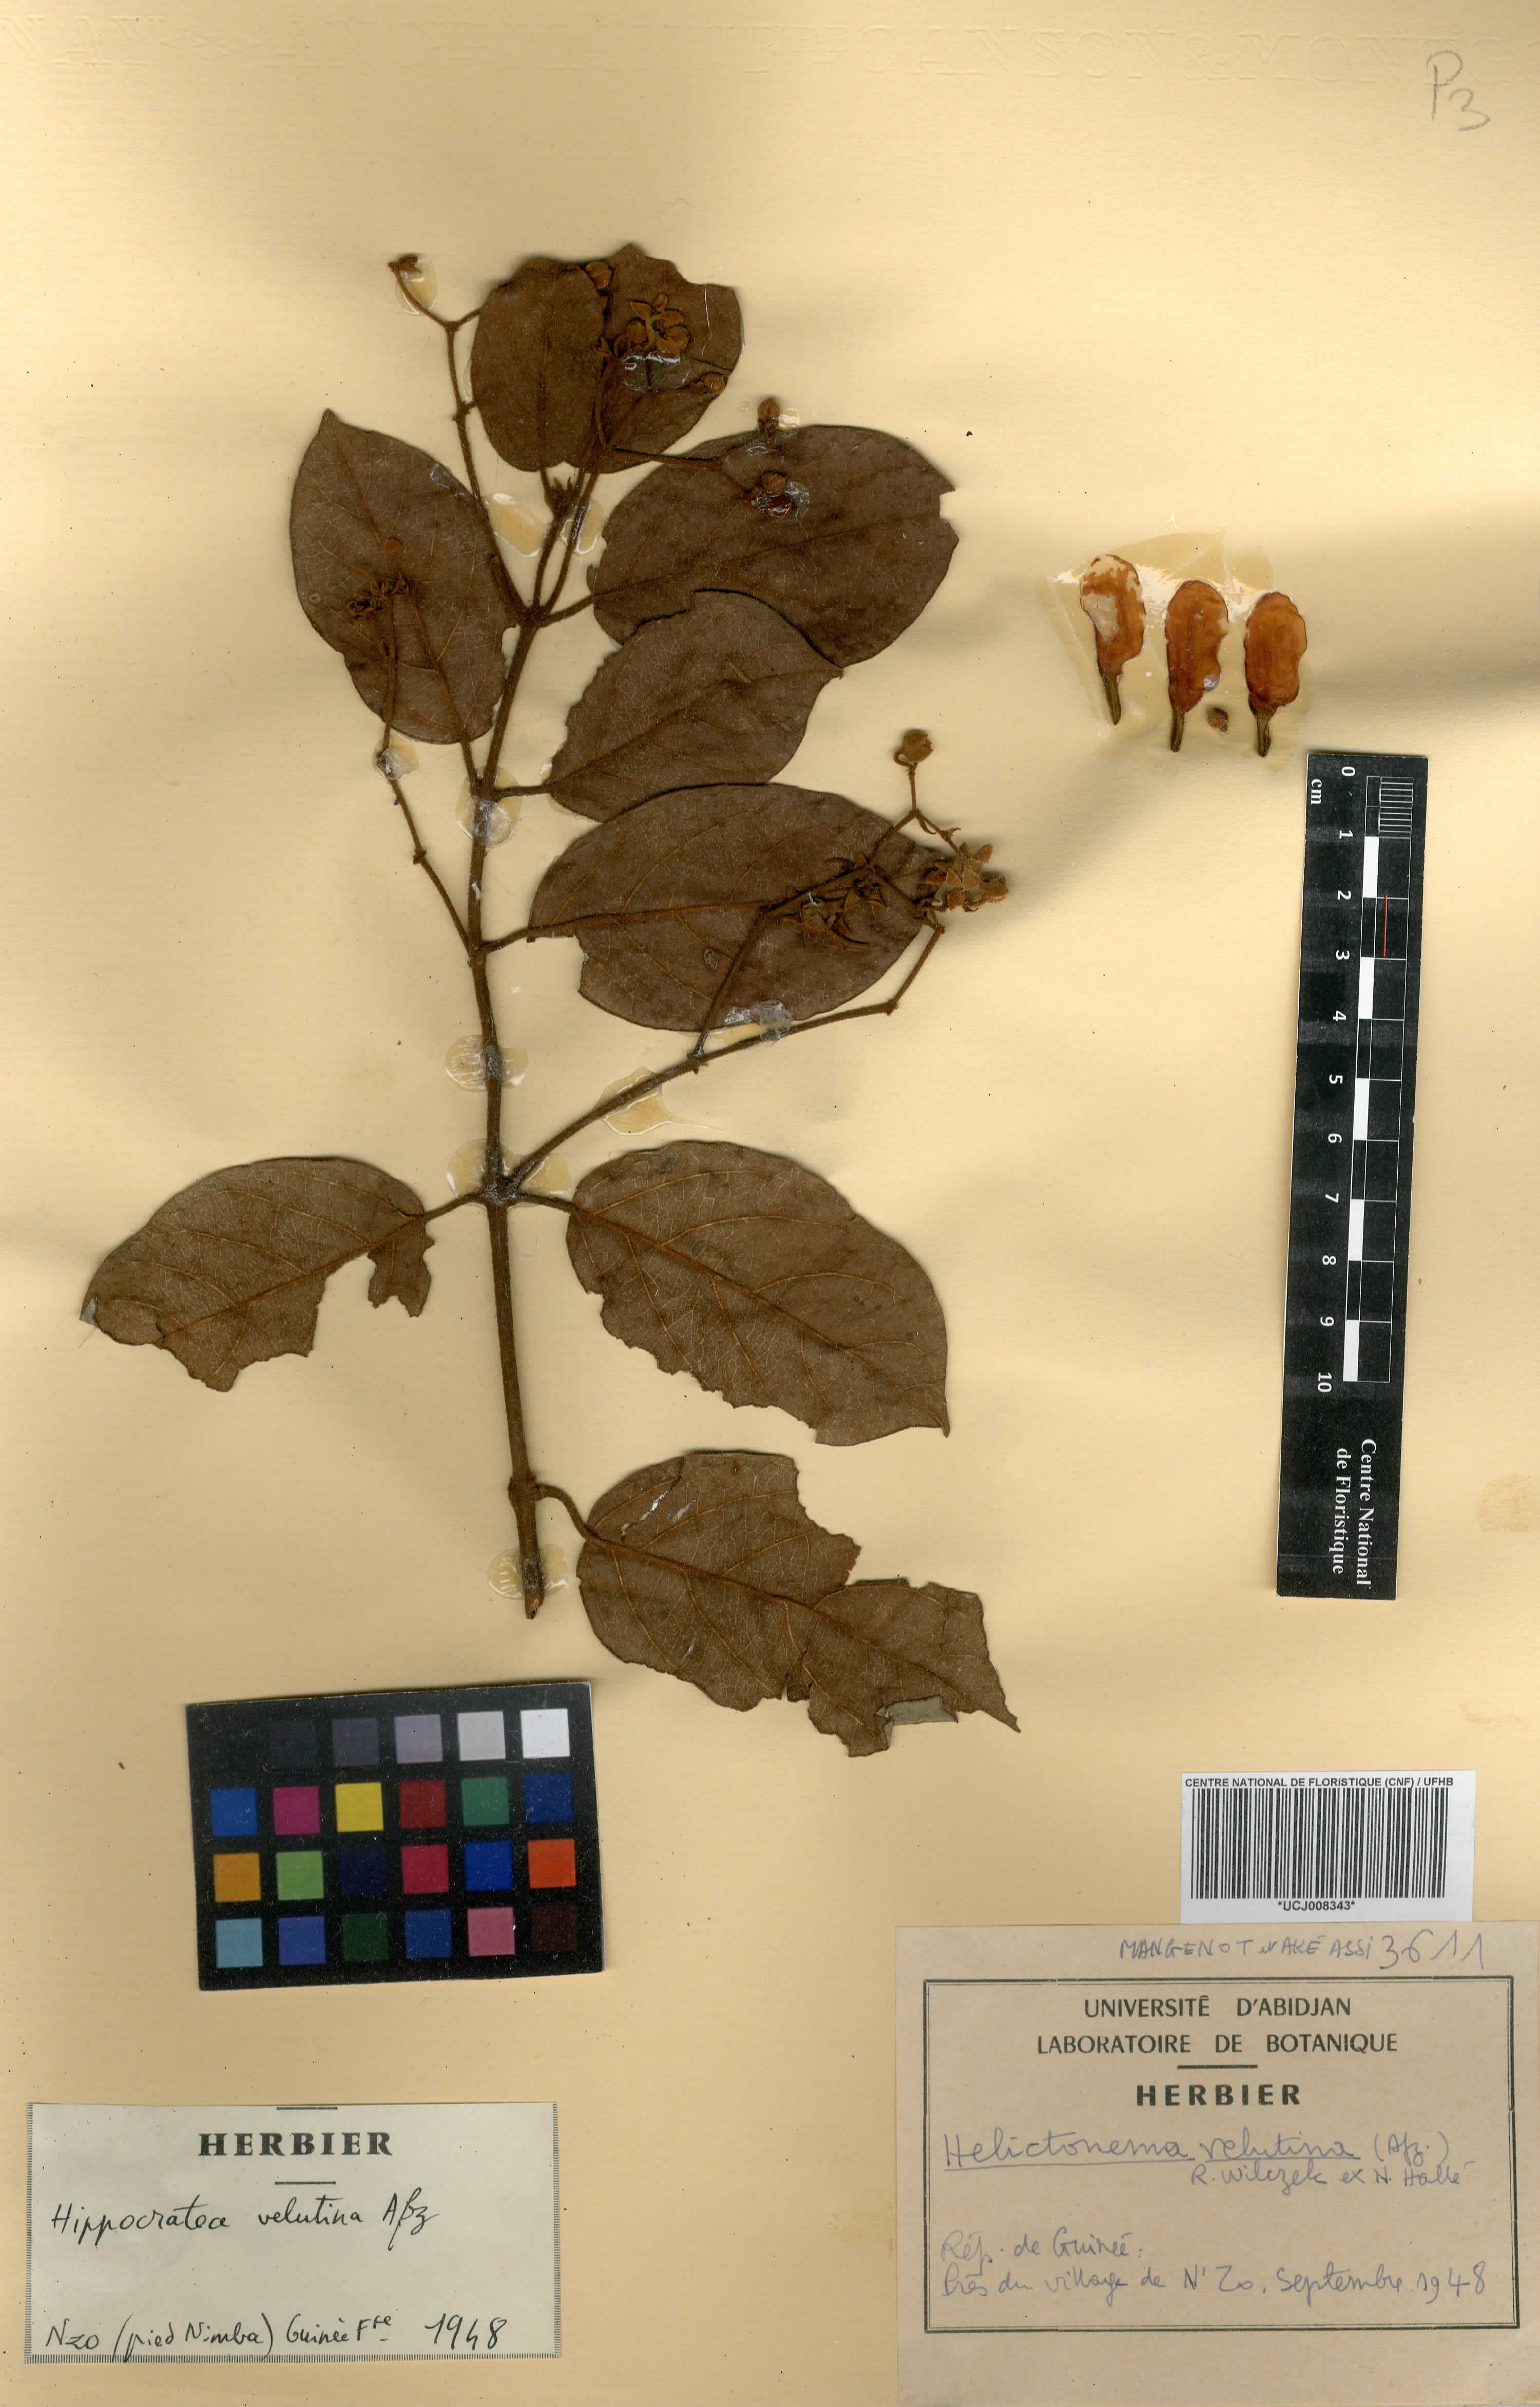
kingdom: Plantae
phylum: Tracheophyta
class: Magnoliopsida
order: Celastrales
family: Celastraceae
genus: Helictonema
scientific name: Helictonema velutinum
